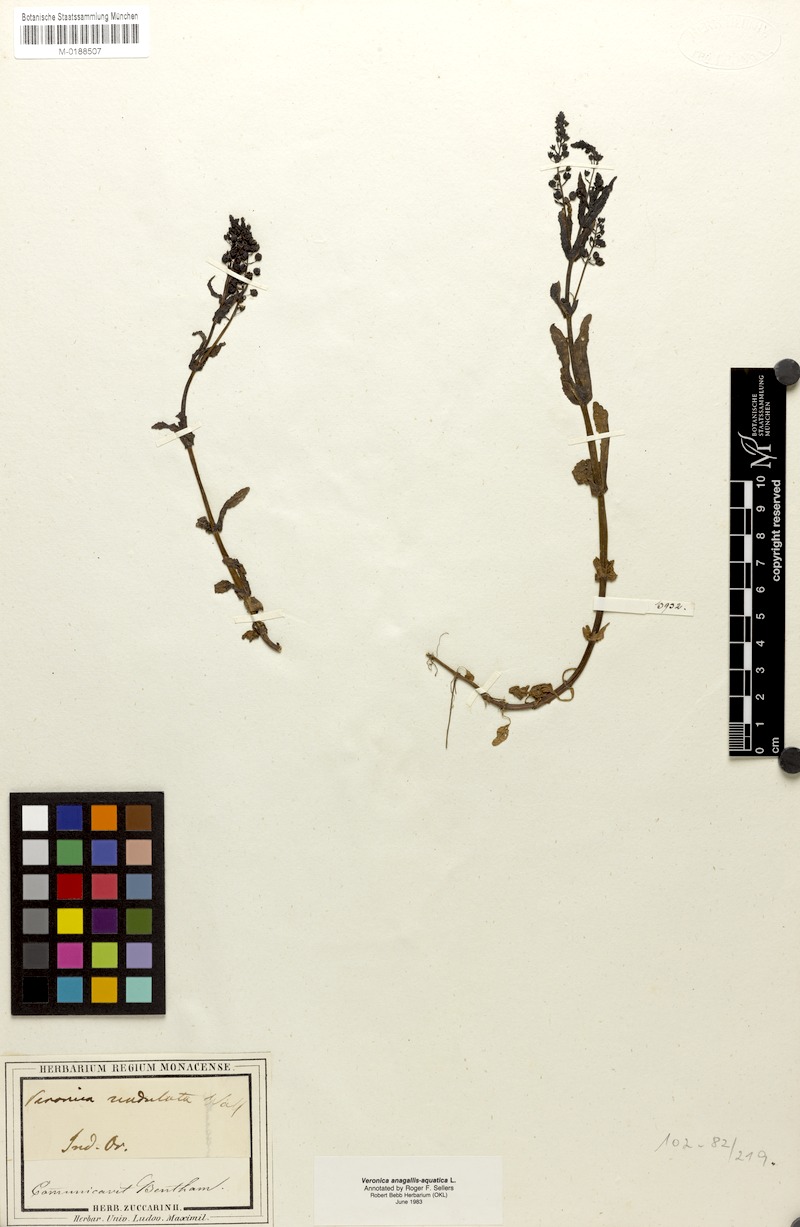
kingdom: Plantae
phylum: Tracheophyta
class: Magnoliopsida
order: Lamiales
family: Plantaginaceae
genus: Veronica
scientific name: Veronica undulata
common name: Undulate speedwell
